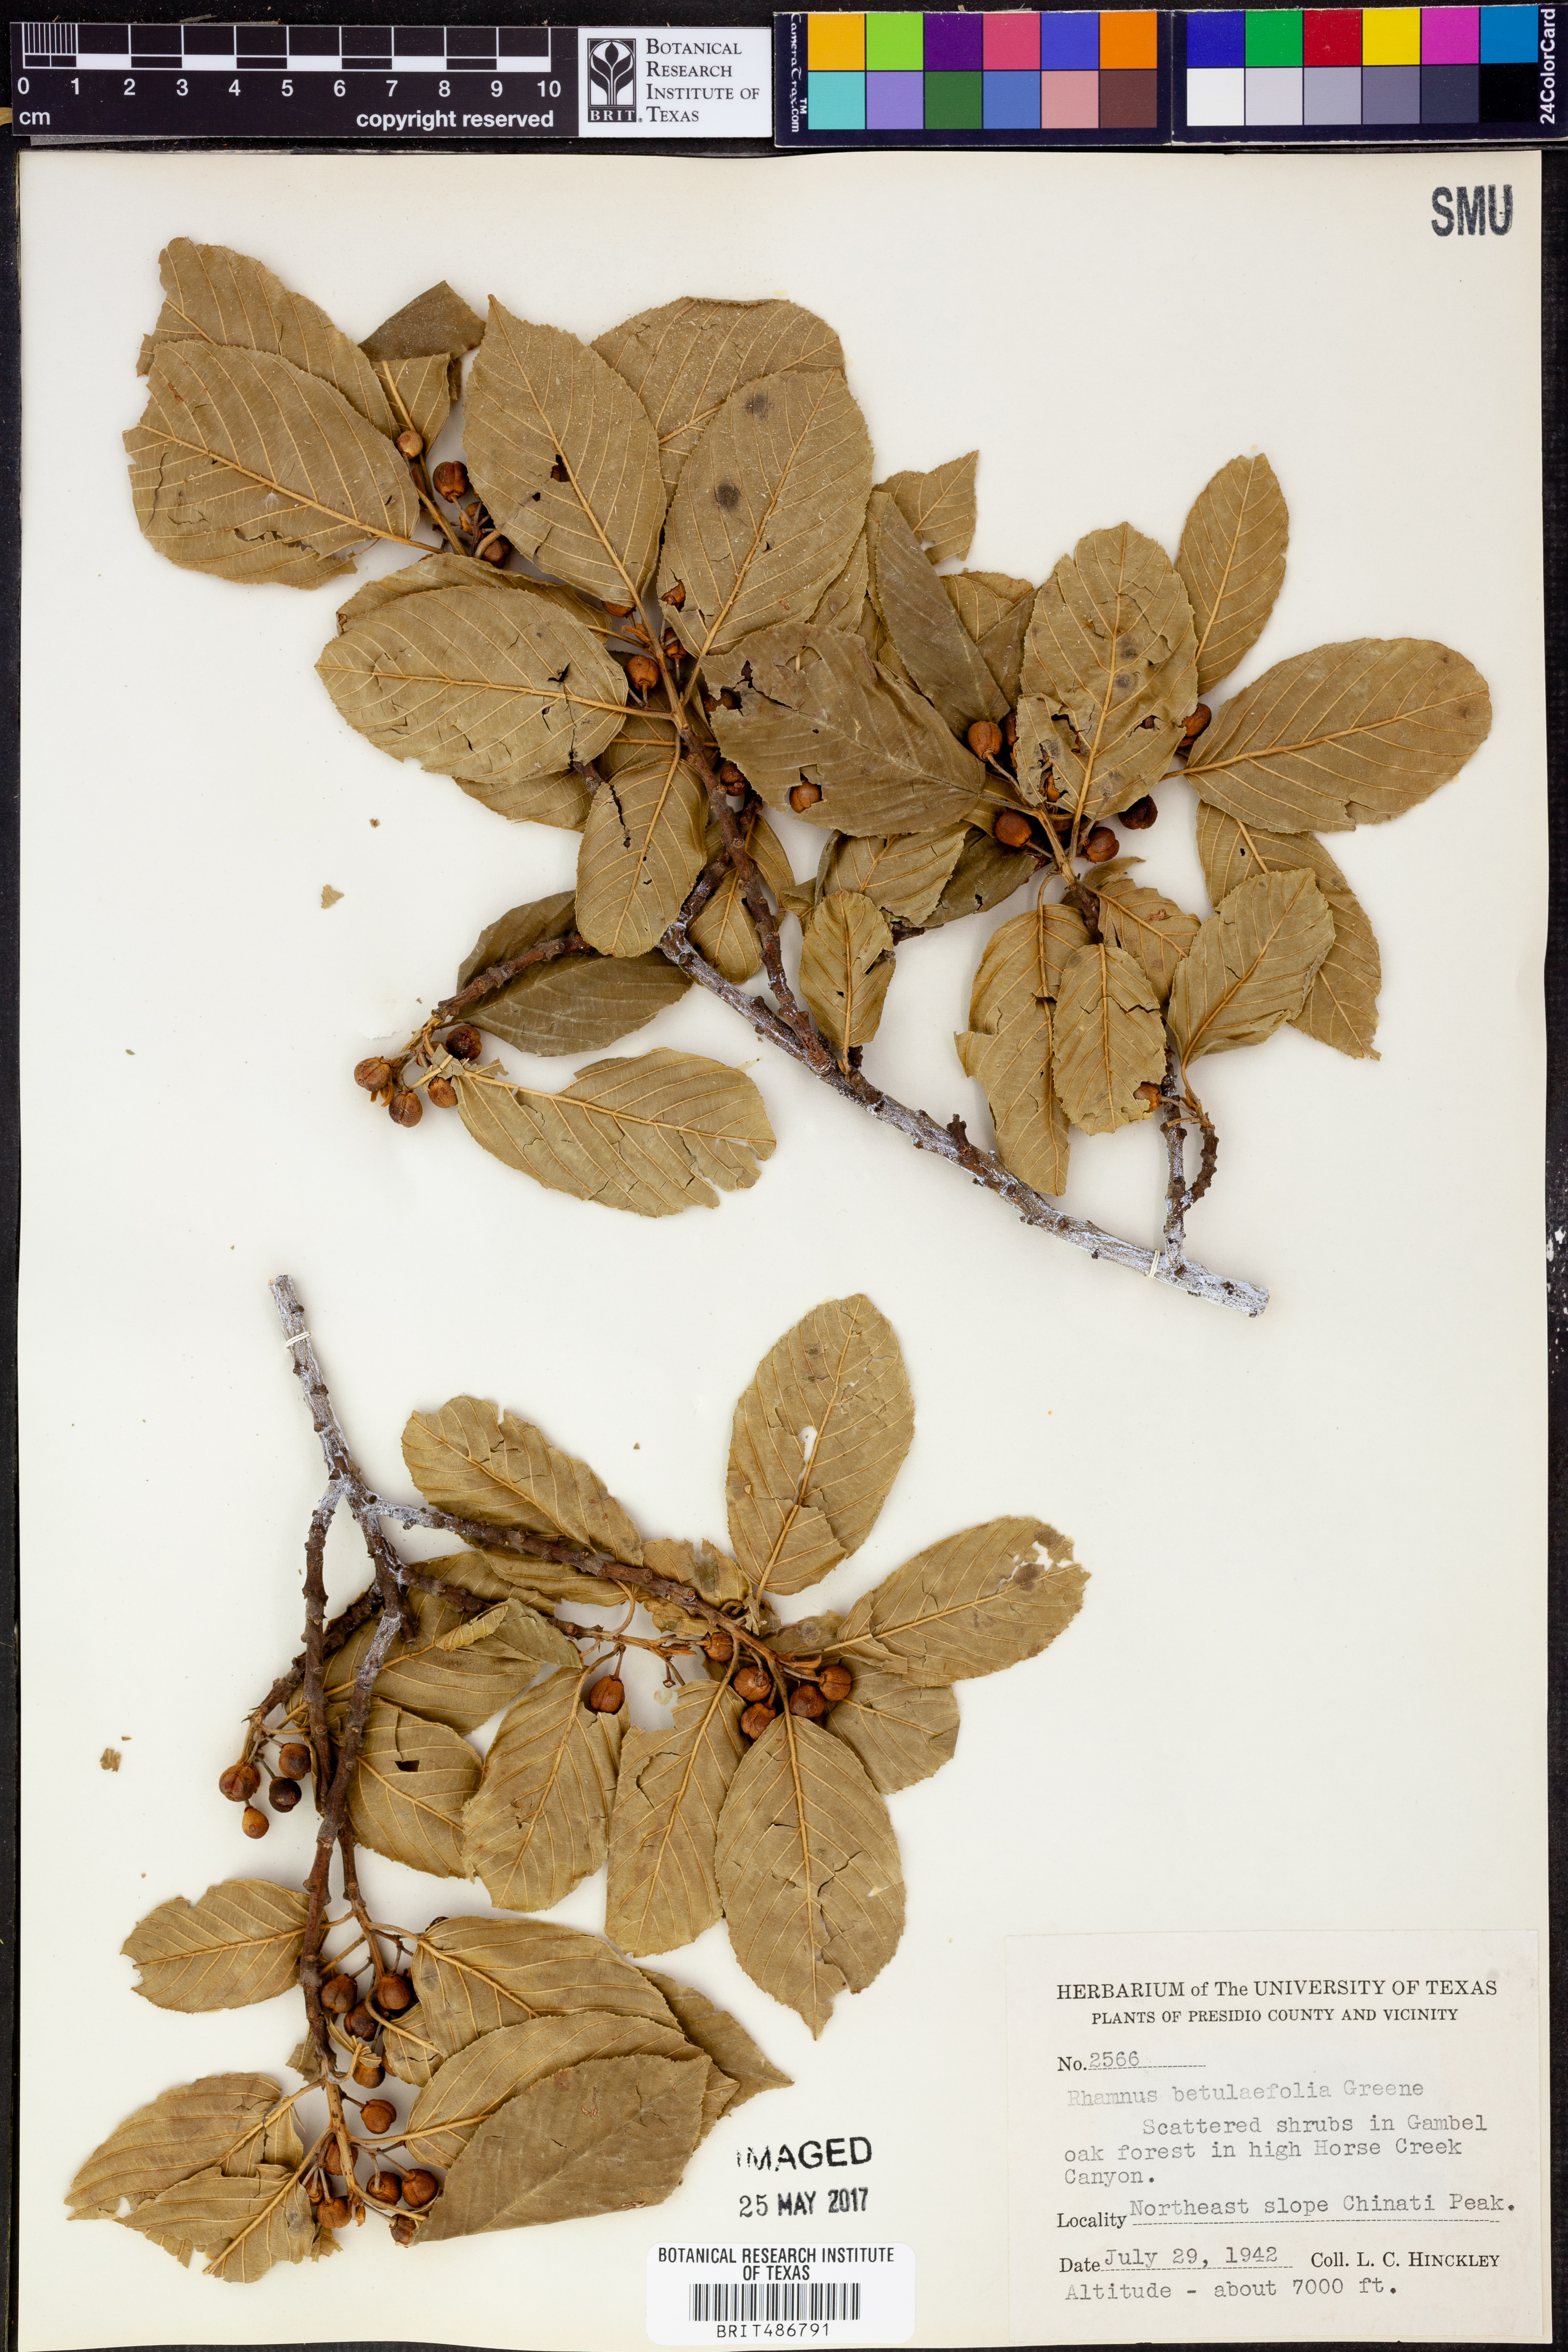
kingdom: Plantae
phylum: Tracheophyta
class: Magnoliopsida
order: Rosales
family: Rhamnaceae
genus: Frangula
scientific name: Frangula betulifolia
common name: Birch-leaf buckthorn
